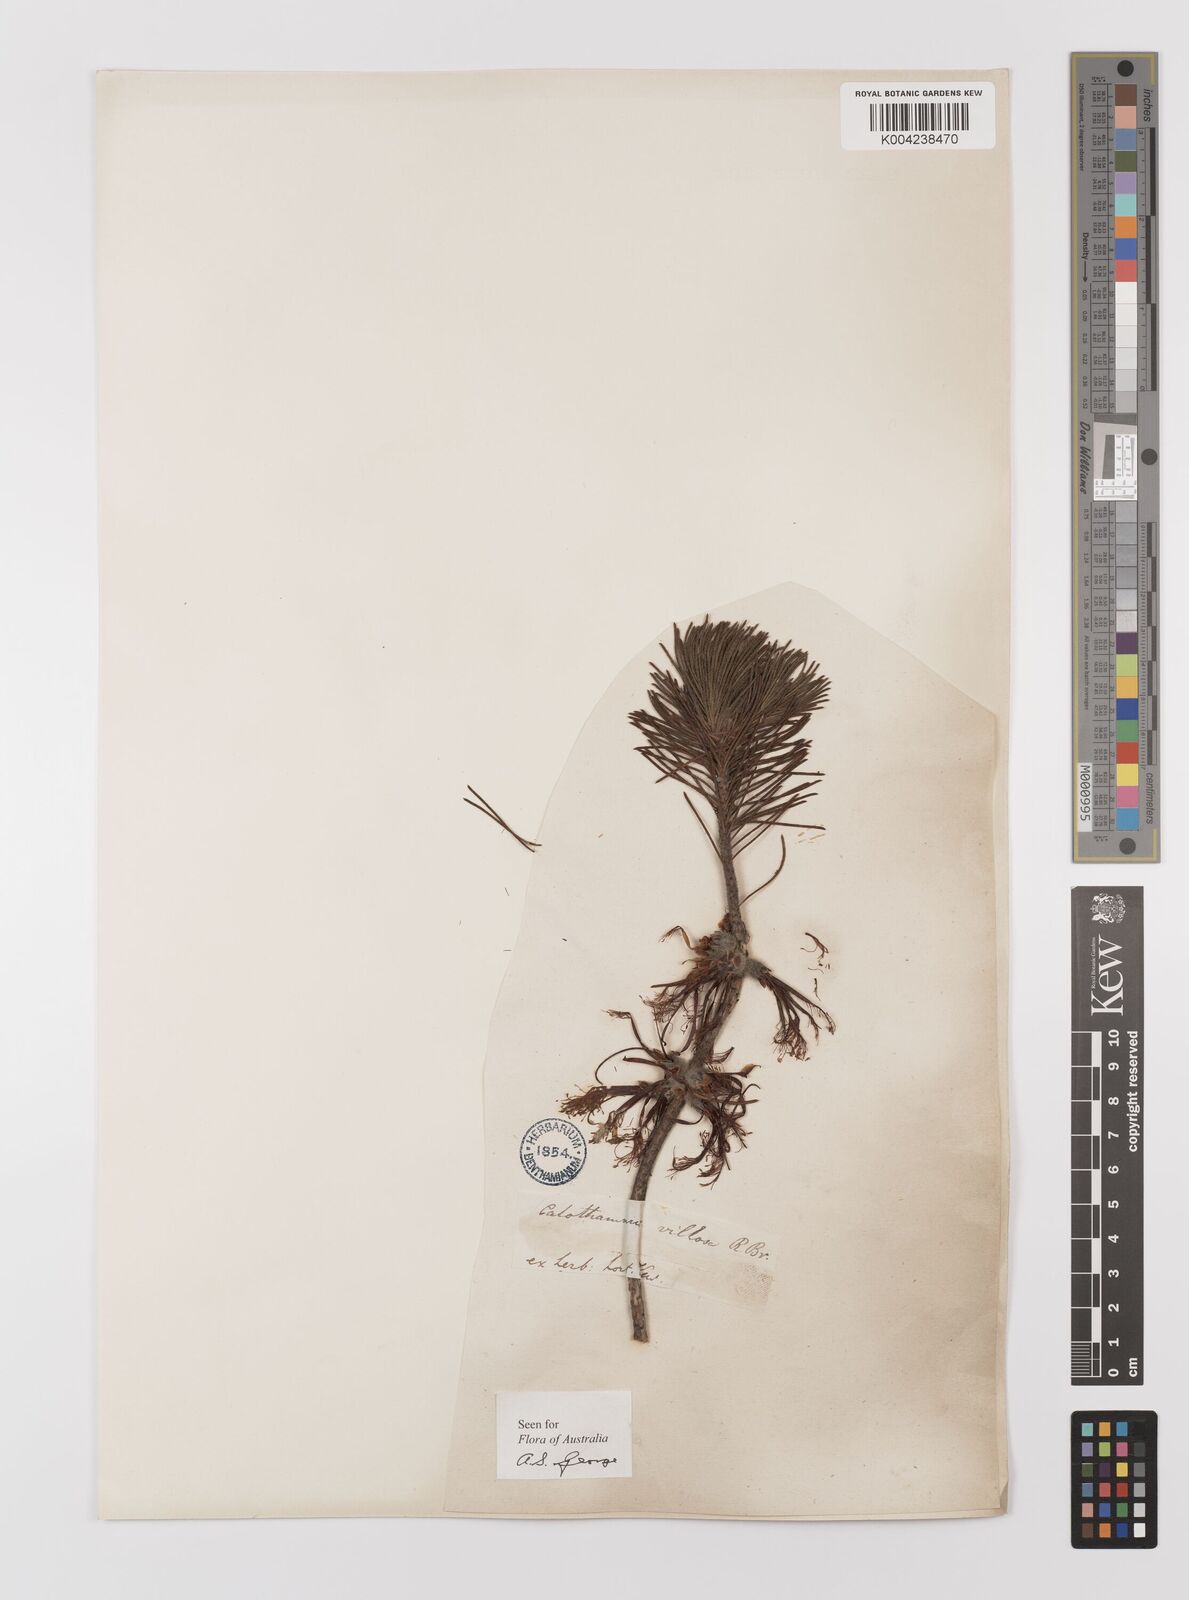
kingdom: Plantae
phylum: Tracheophyta
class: Magnoliopsida
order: Myrtales
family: Myrtaceae
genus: Melaleuca
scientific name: Melaleuca hislopii
